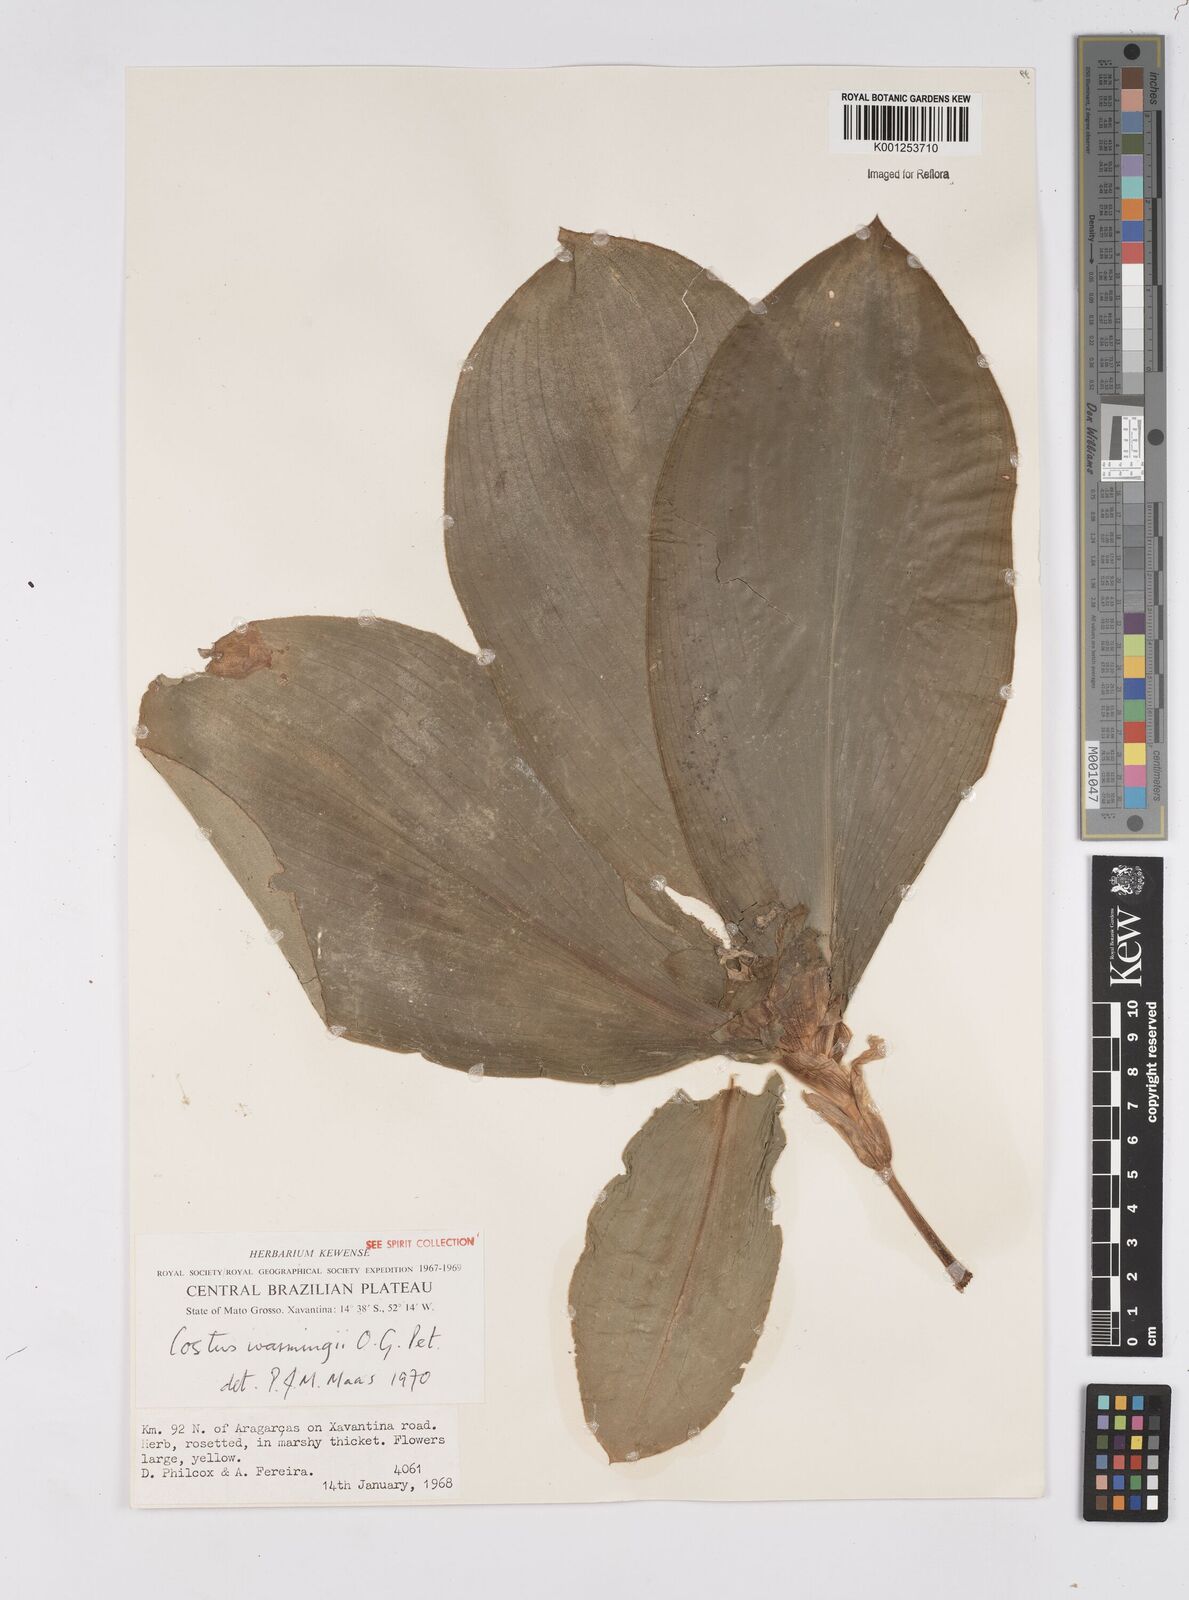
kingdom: Plantae
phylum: Tracheophyta
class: Liliopsida
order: Zingiberales
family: Costaceae
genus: Chamaecostus
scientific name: Chamaecostus subsessilis
